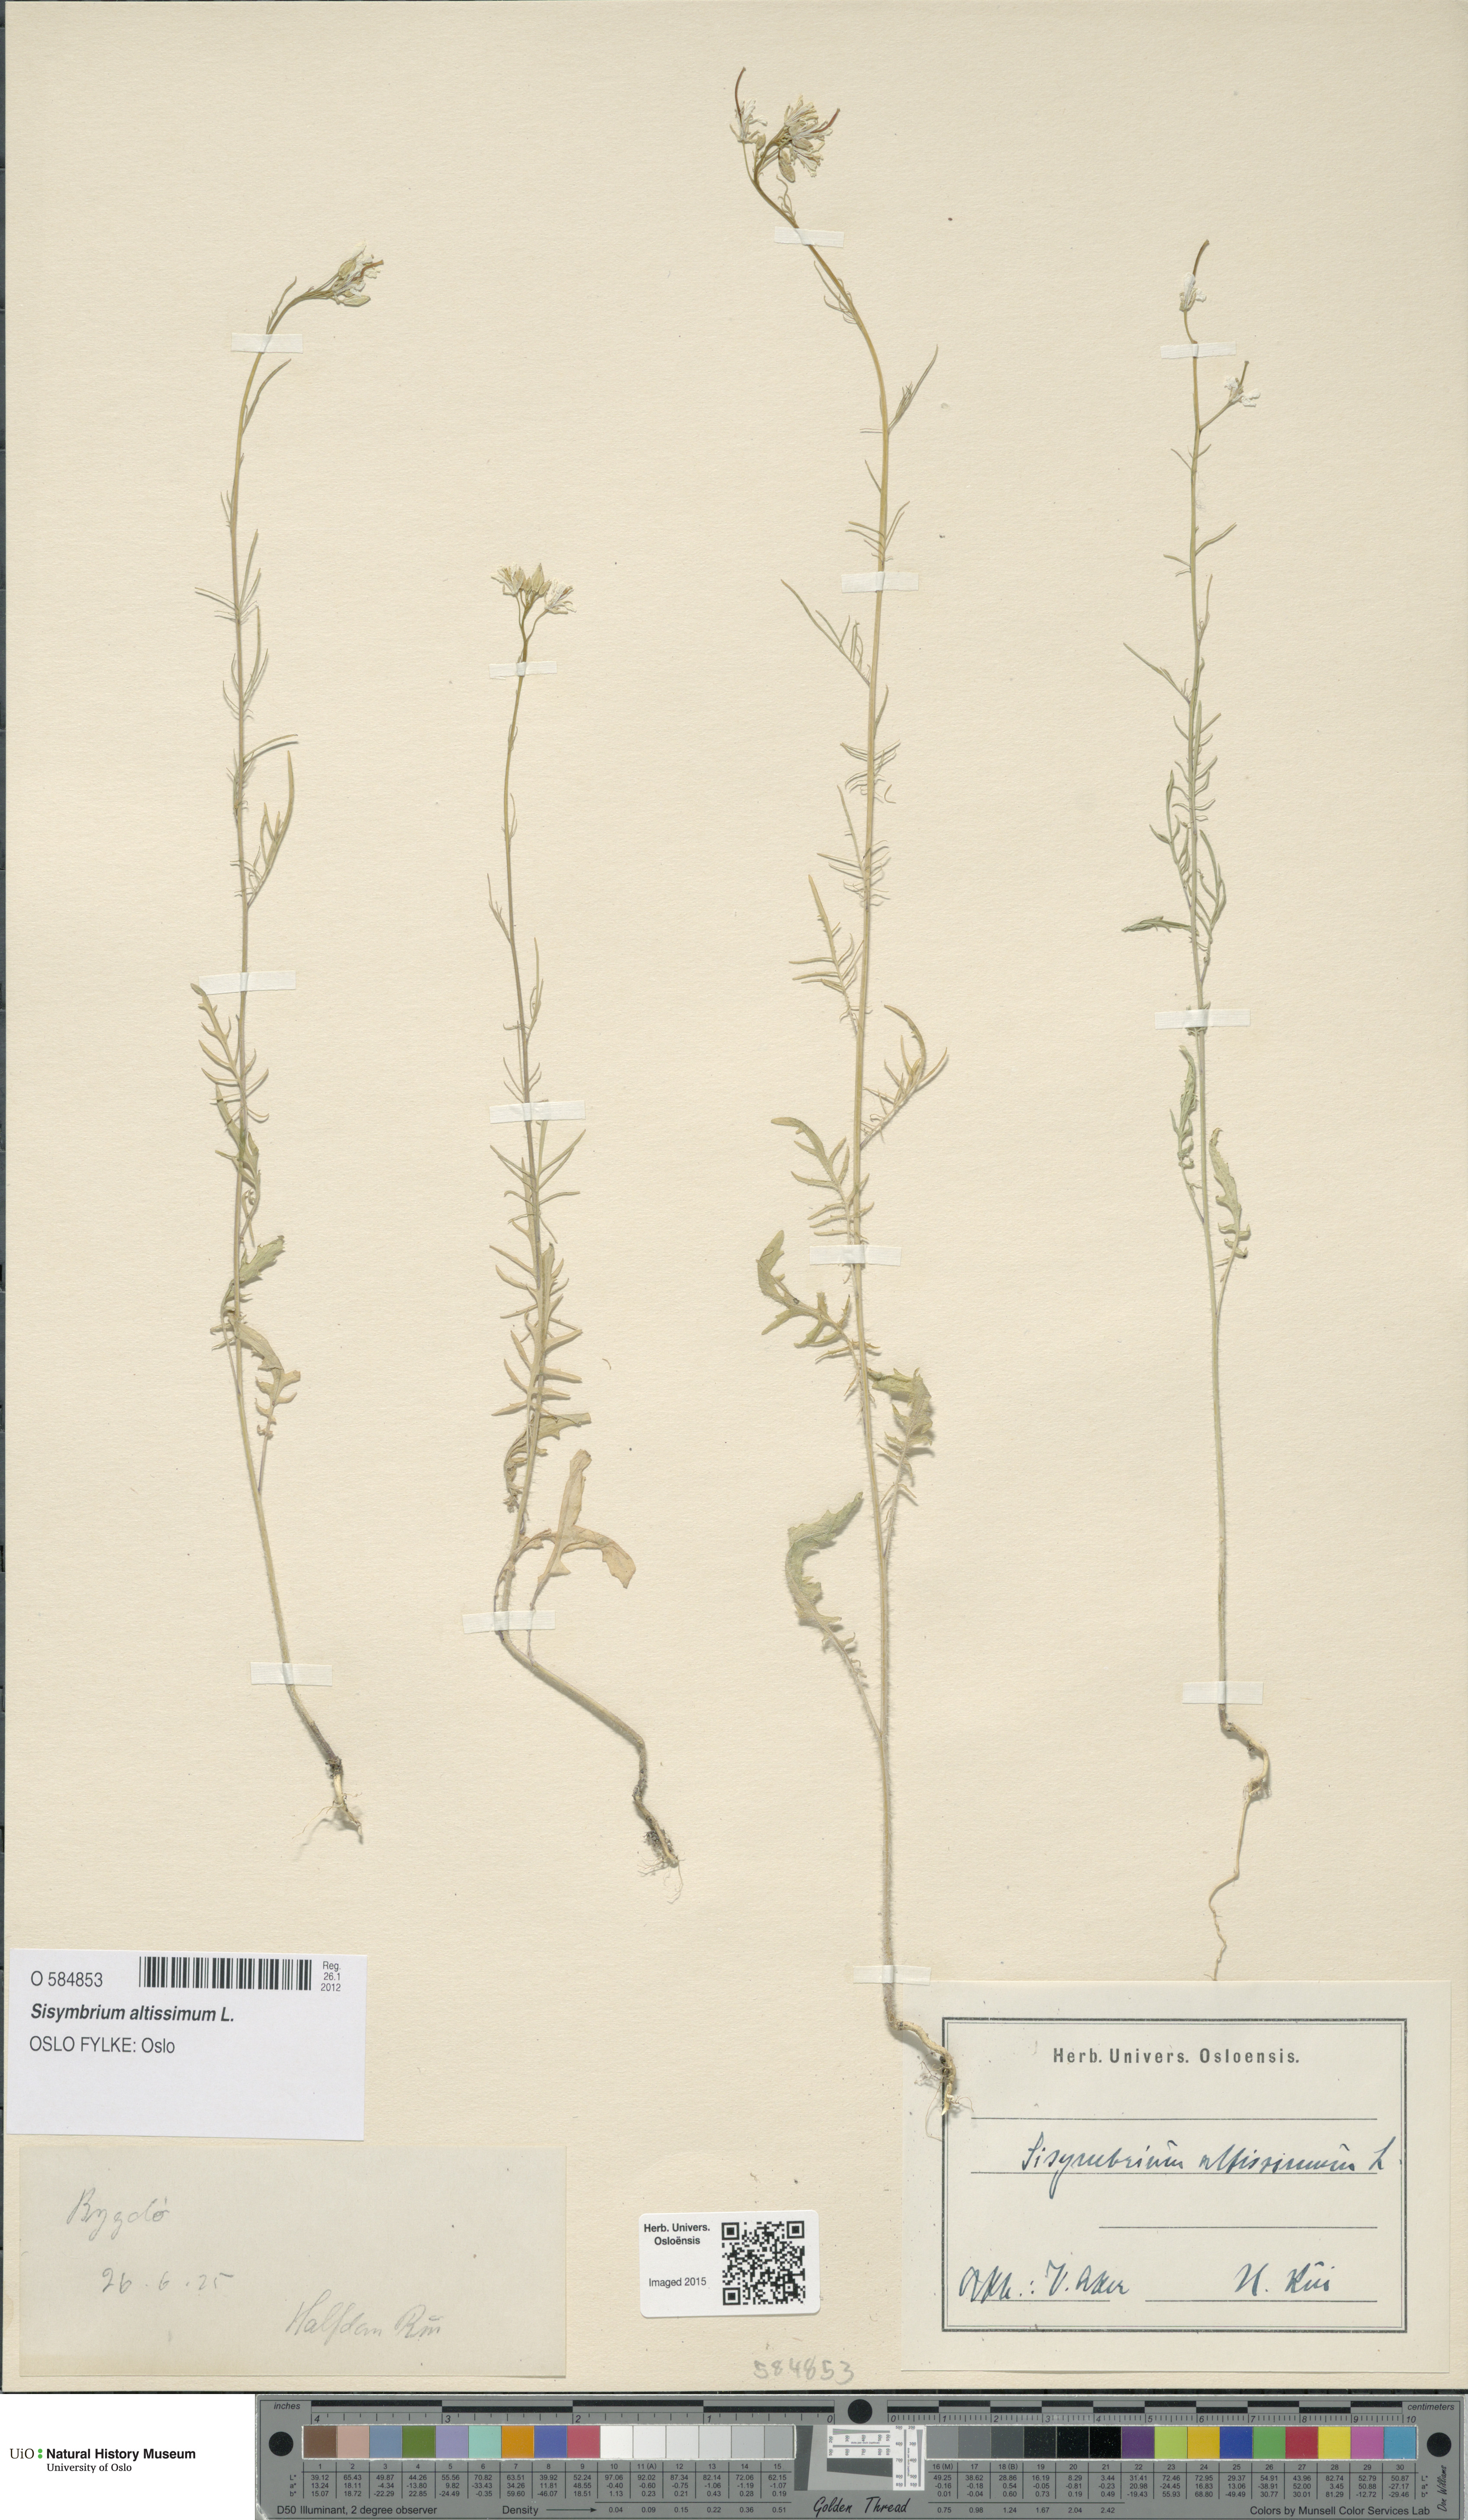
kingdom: Plantae
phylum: Tracheophyta
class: Magnoliopsida
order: Brassicales
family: Brassicaceae
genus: Sisymbrium
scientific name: Sisymbrium altissimum
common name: Tall rocket
